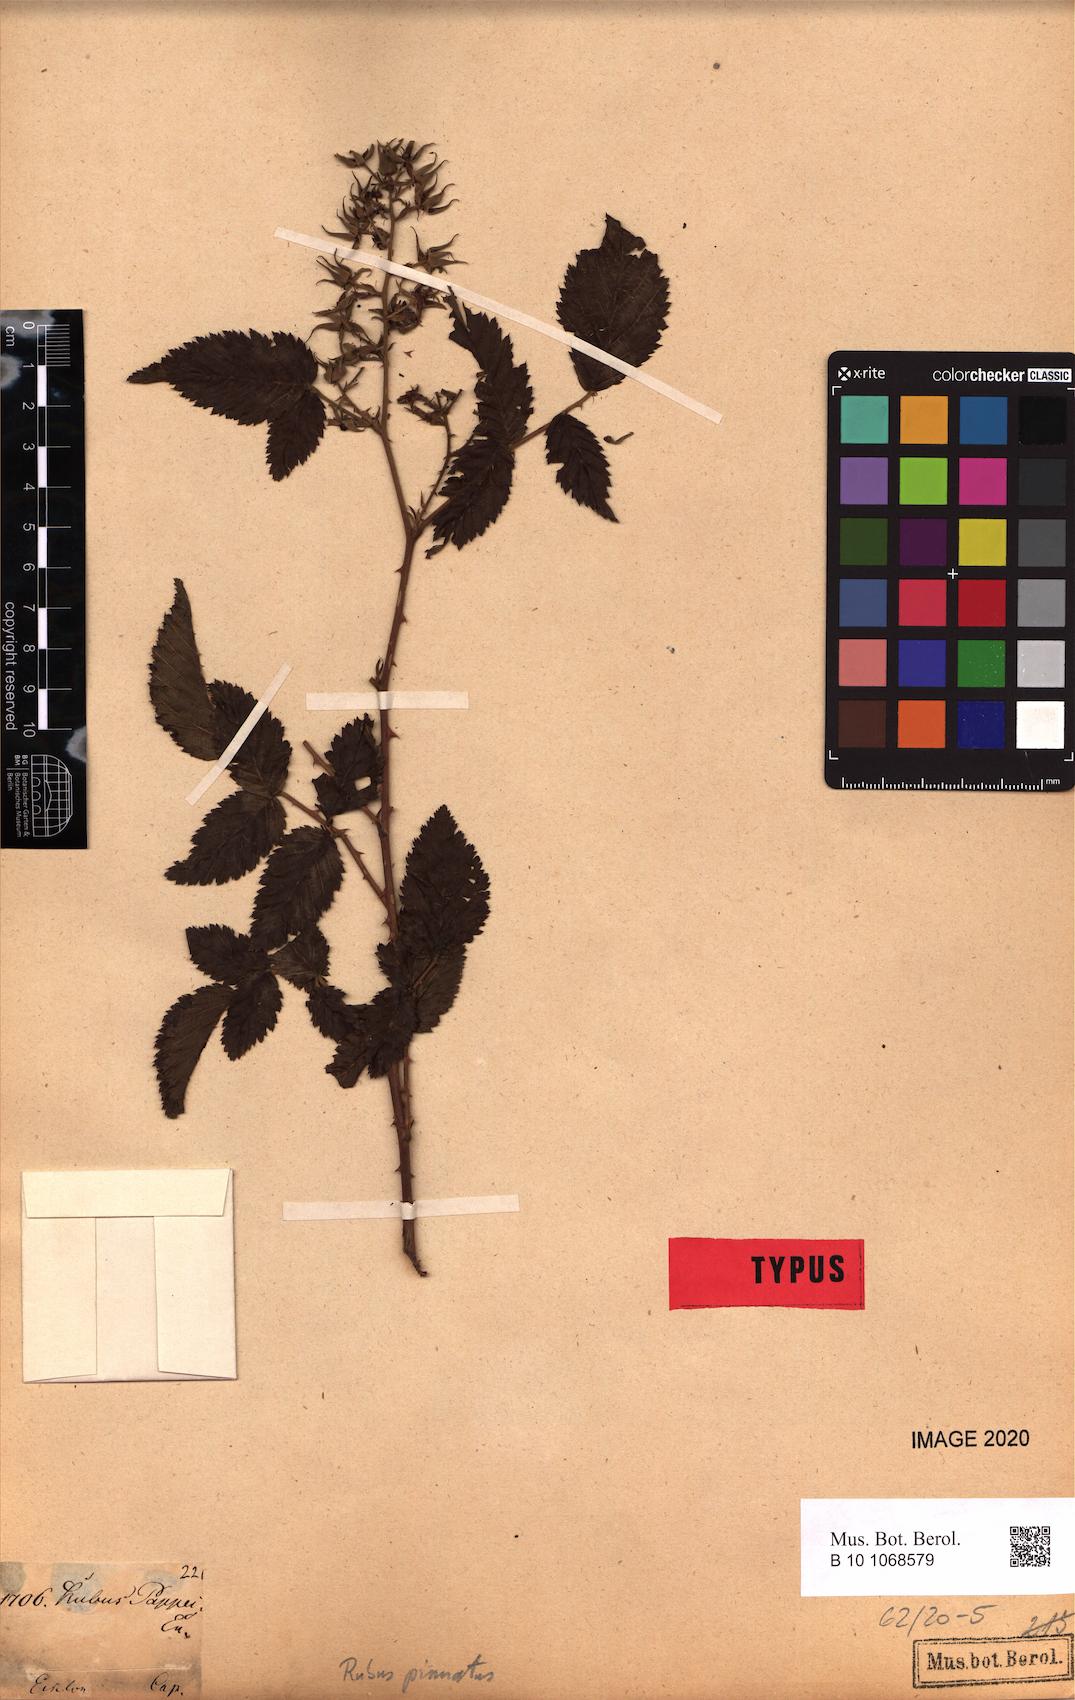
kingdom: Plantae
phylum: Tracheophyta
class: Magnoliopsida
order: Rosales
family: Rosaceae
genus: Rubus
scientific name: Rubus pinnatus
